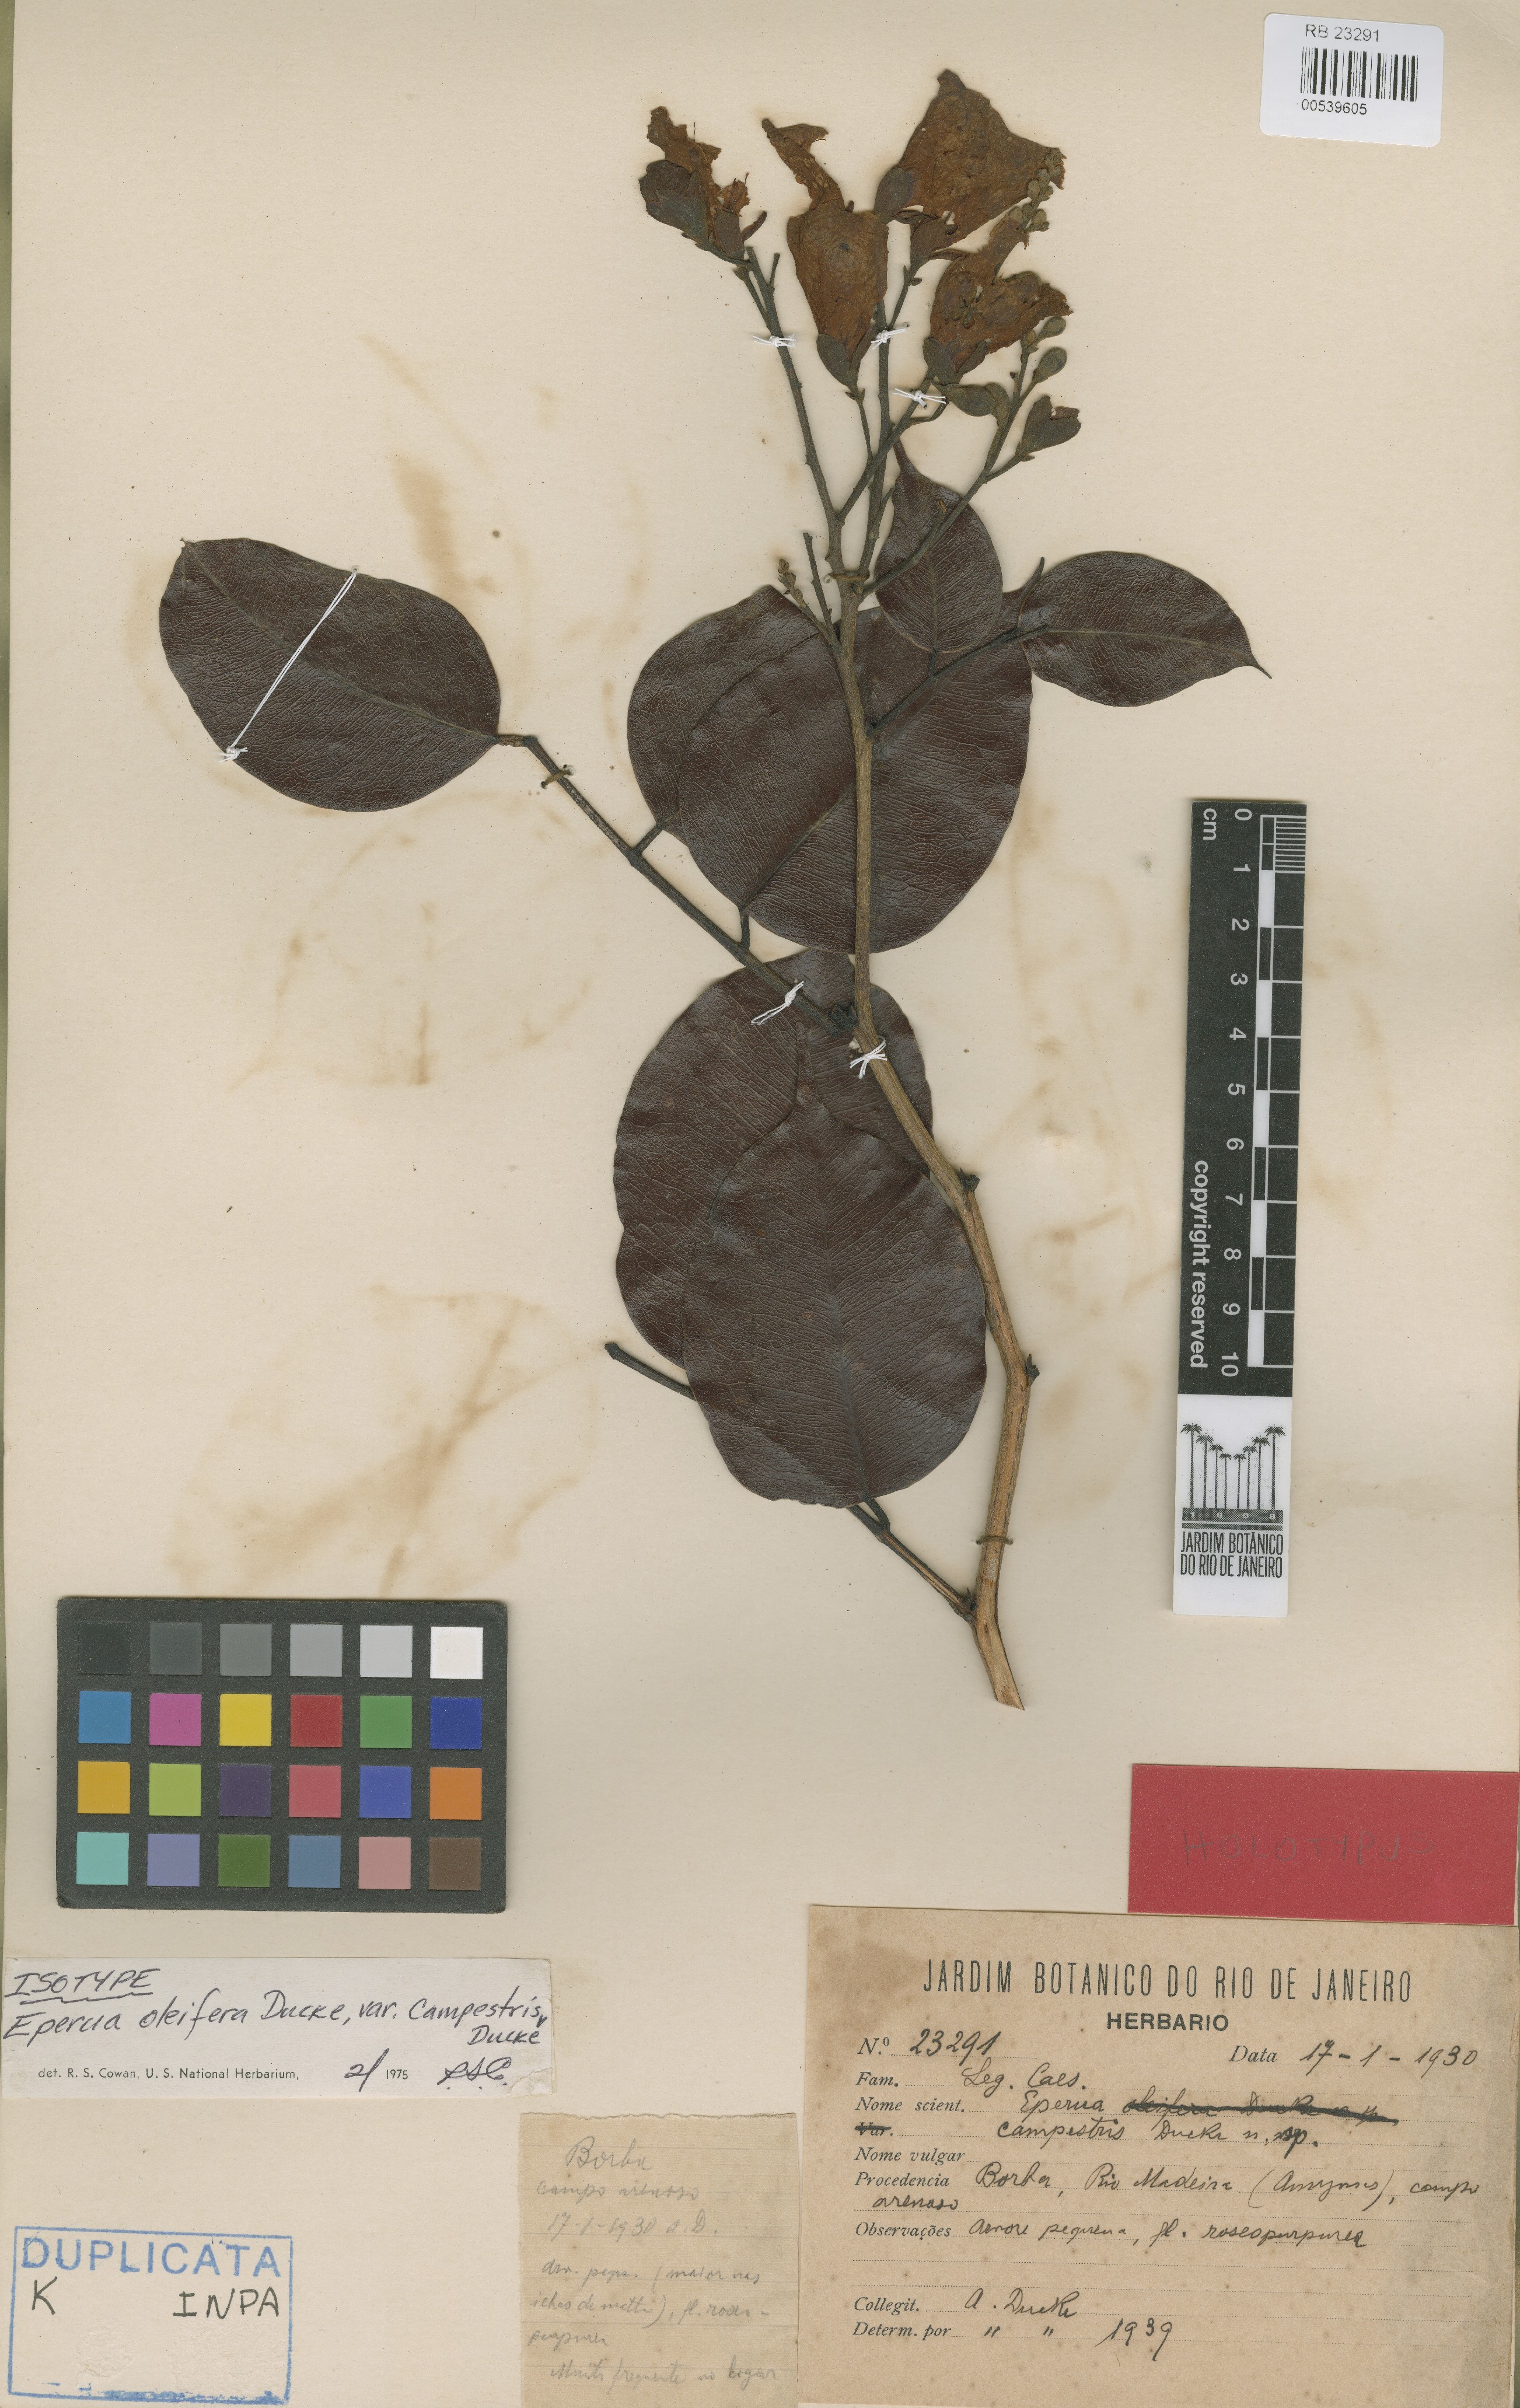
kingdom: Plantae
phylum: Tracheophyta
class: Magnoliopsida
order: Fabales
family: Fabaceae
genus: Eperua
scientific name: Eperua oleifera
